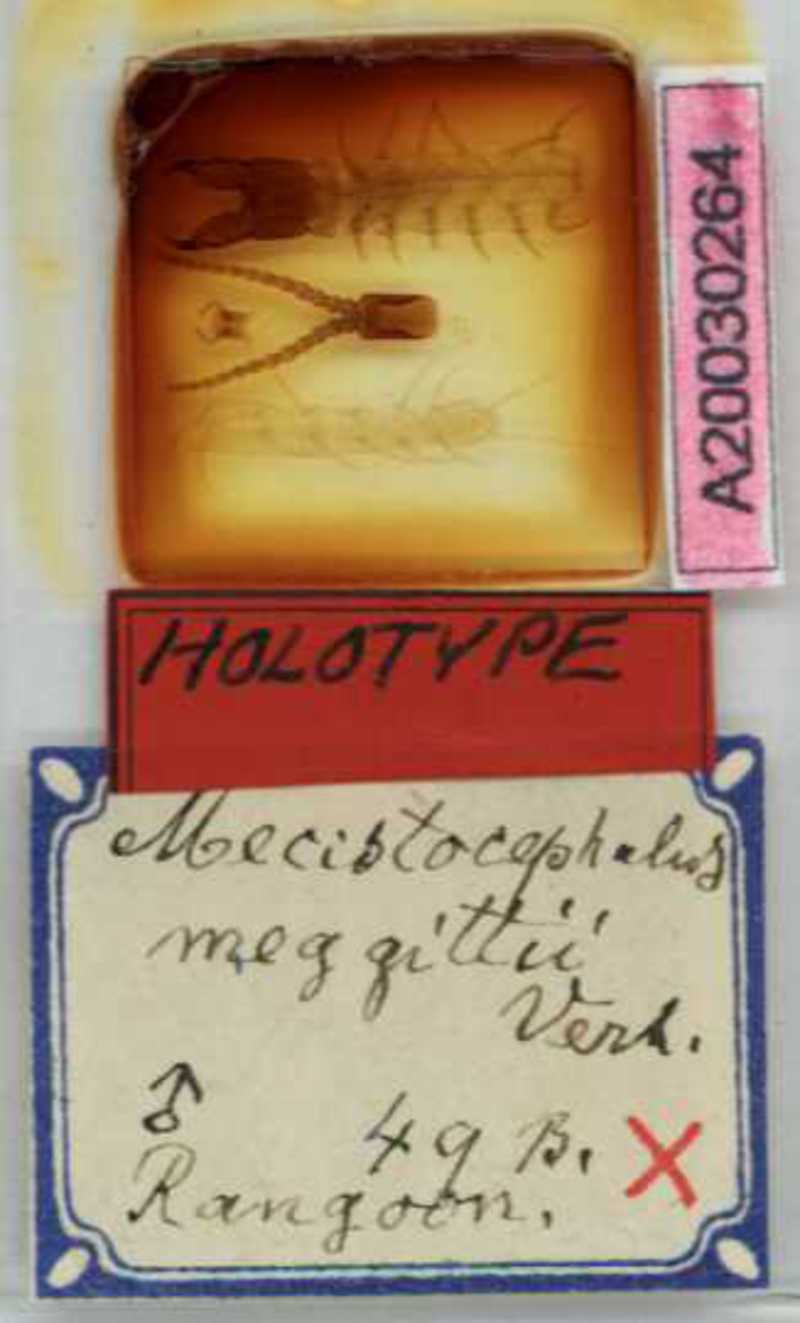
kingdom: Animalia
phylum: Arthropoda
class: Chilopoda
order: Geophilomorpha
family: Mecistocephalidae
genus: Mecistocephalus
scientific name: Mecistocephalus meggittii
